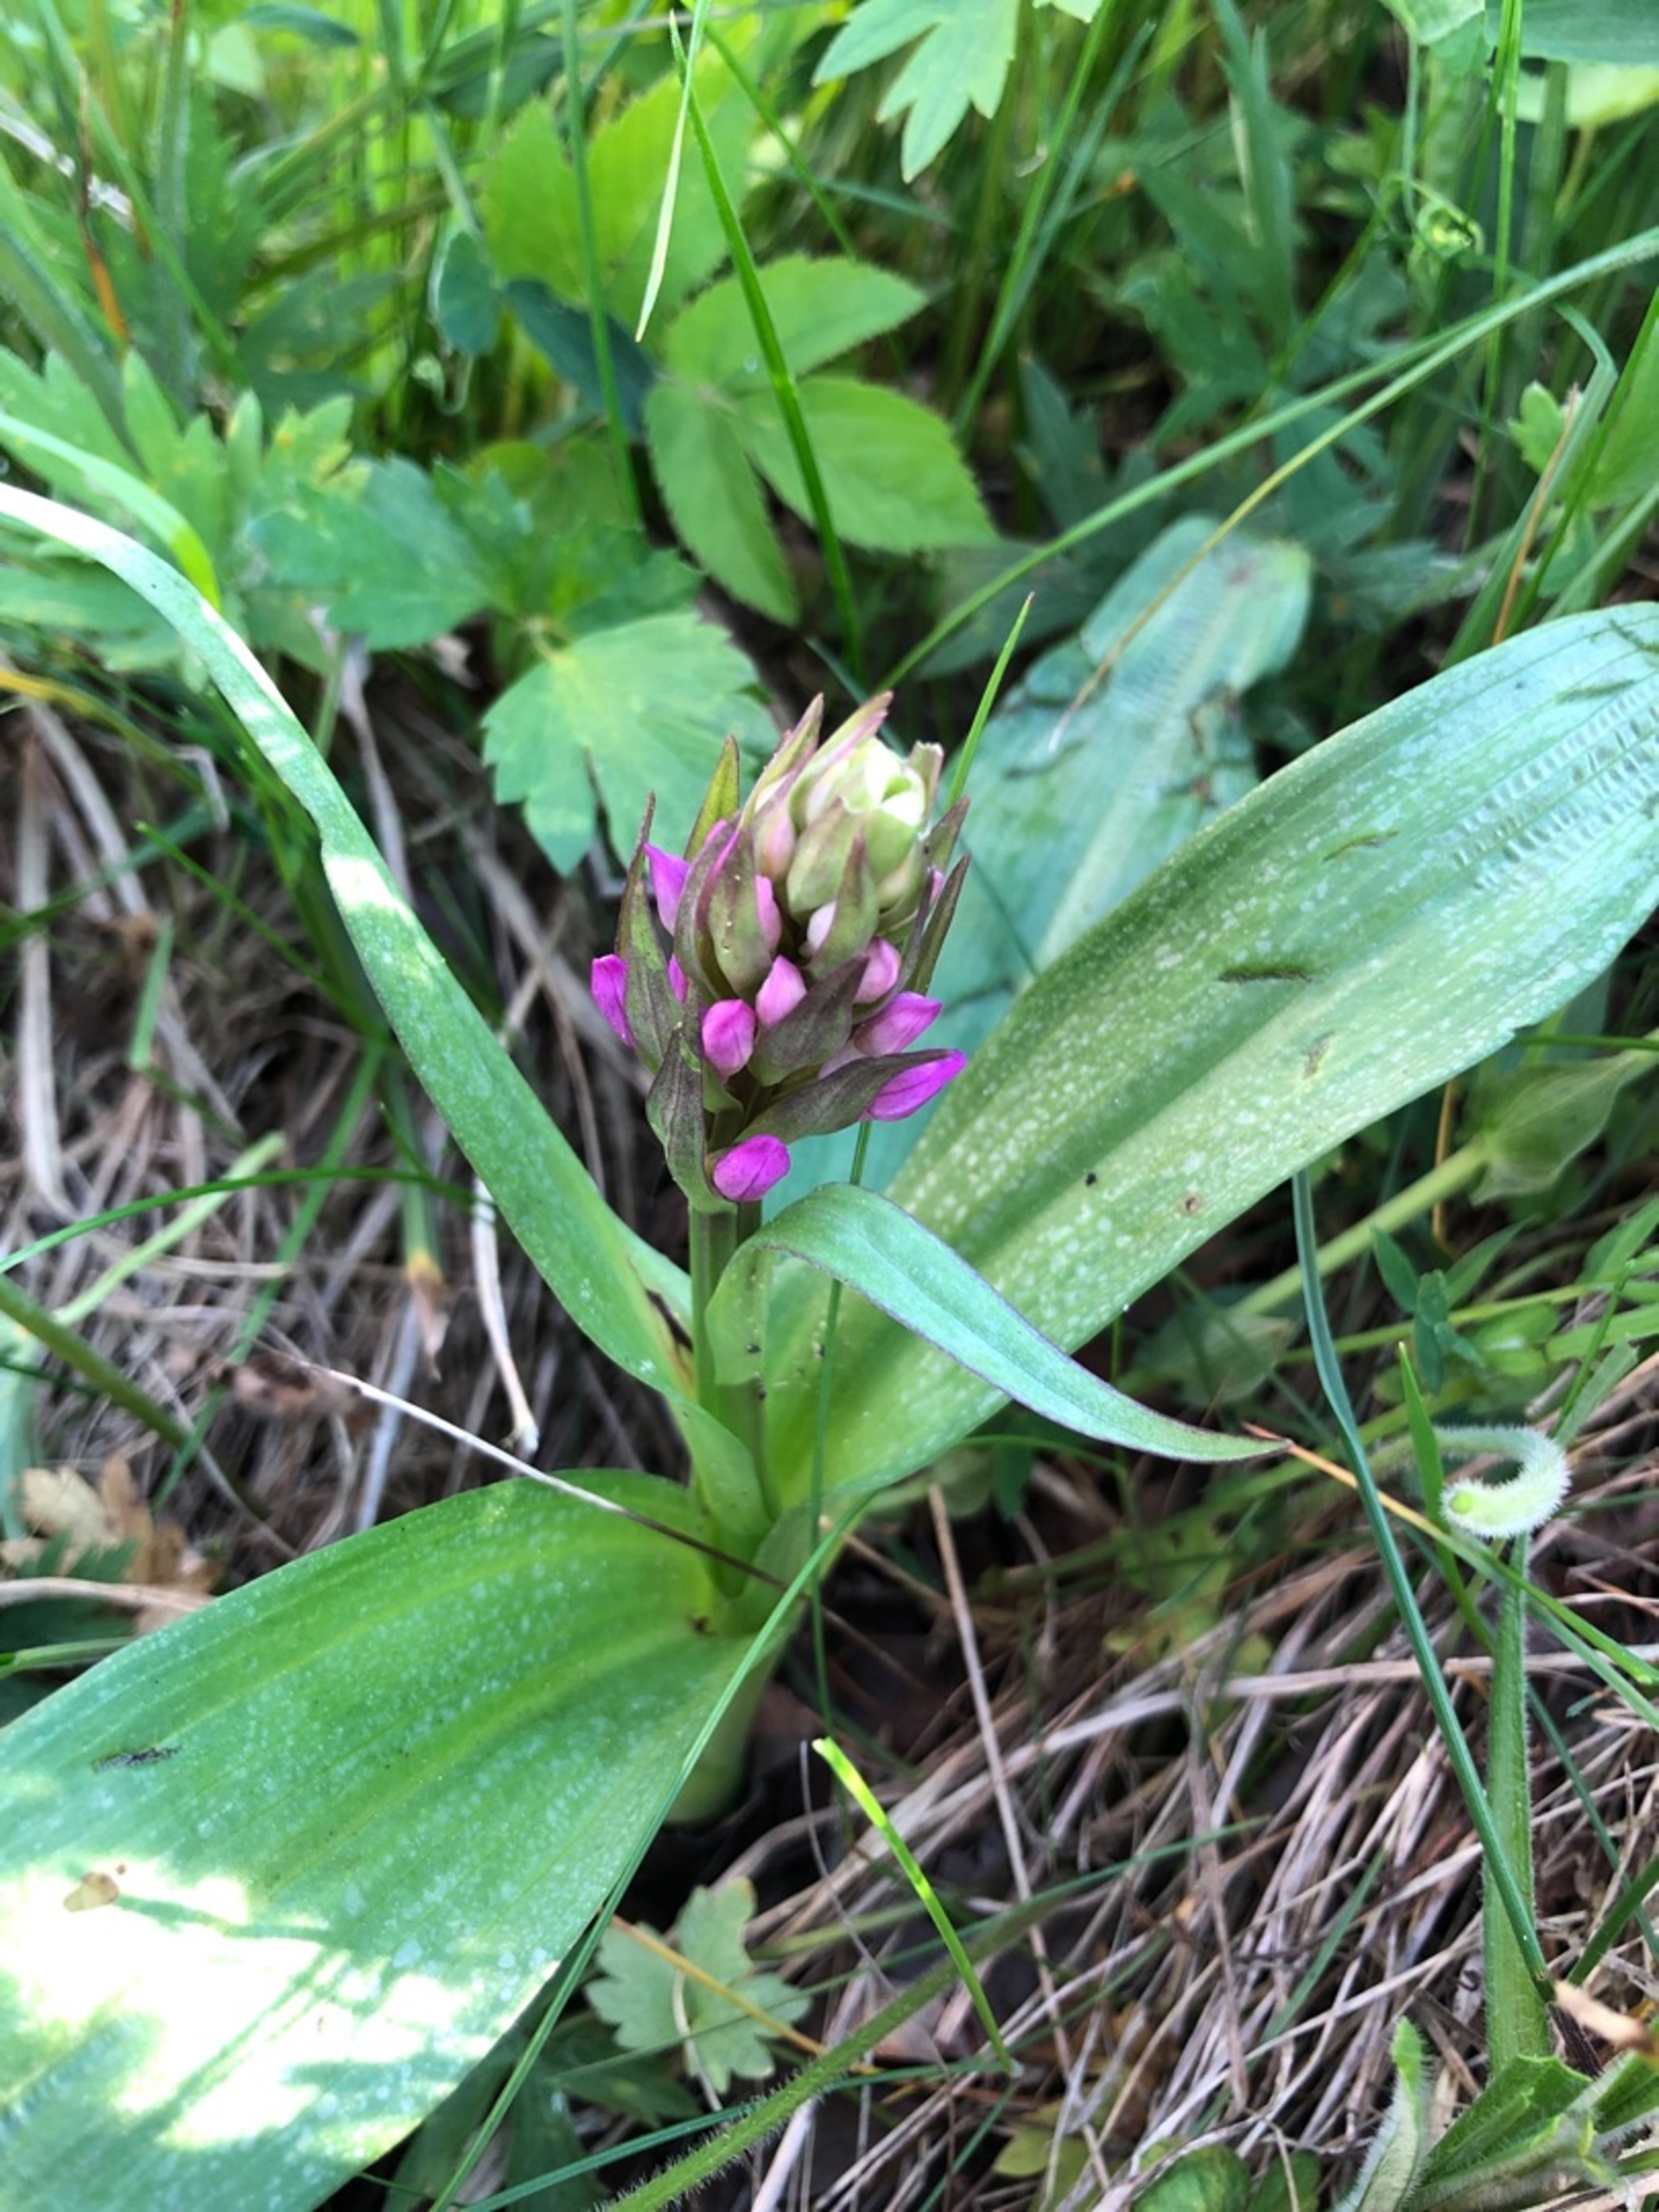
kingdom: Plantae
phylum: Tracheophyta
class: Liliopsida
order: Asparagales
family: Orchidaceae
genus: Dactylorhiza
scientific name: Dactylorhiza majalis
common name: Maj-gøgeurt
